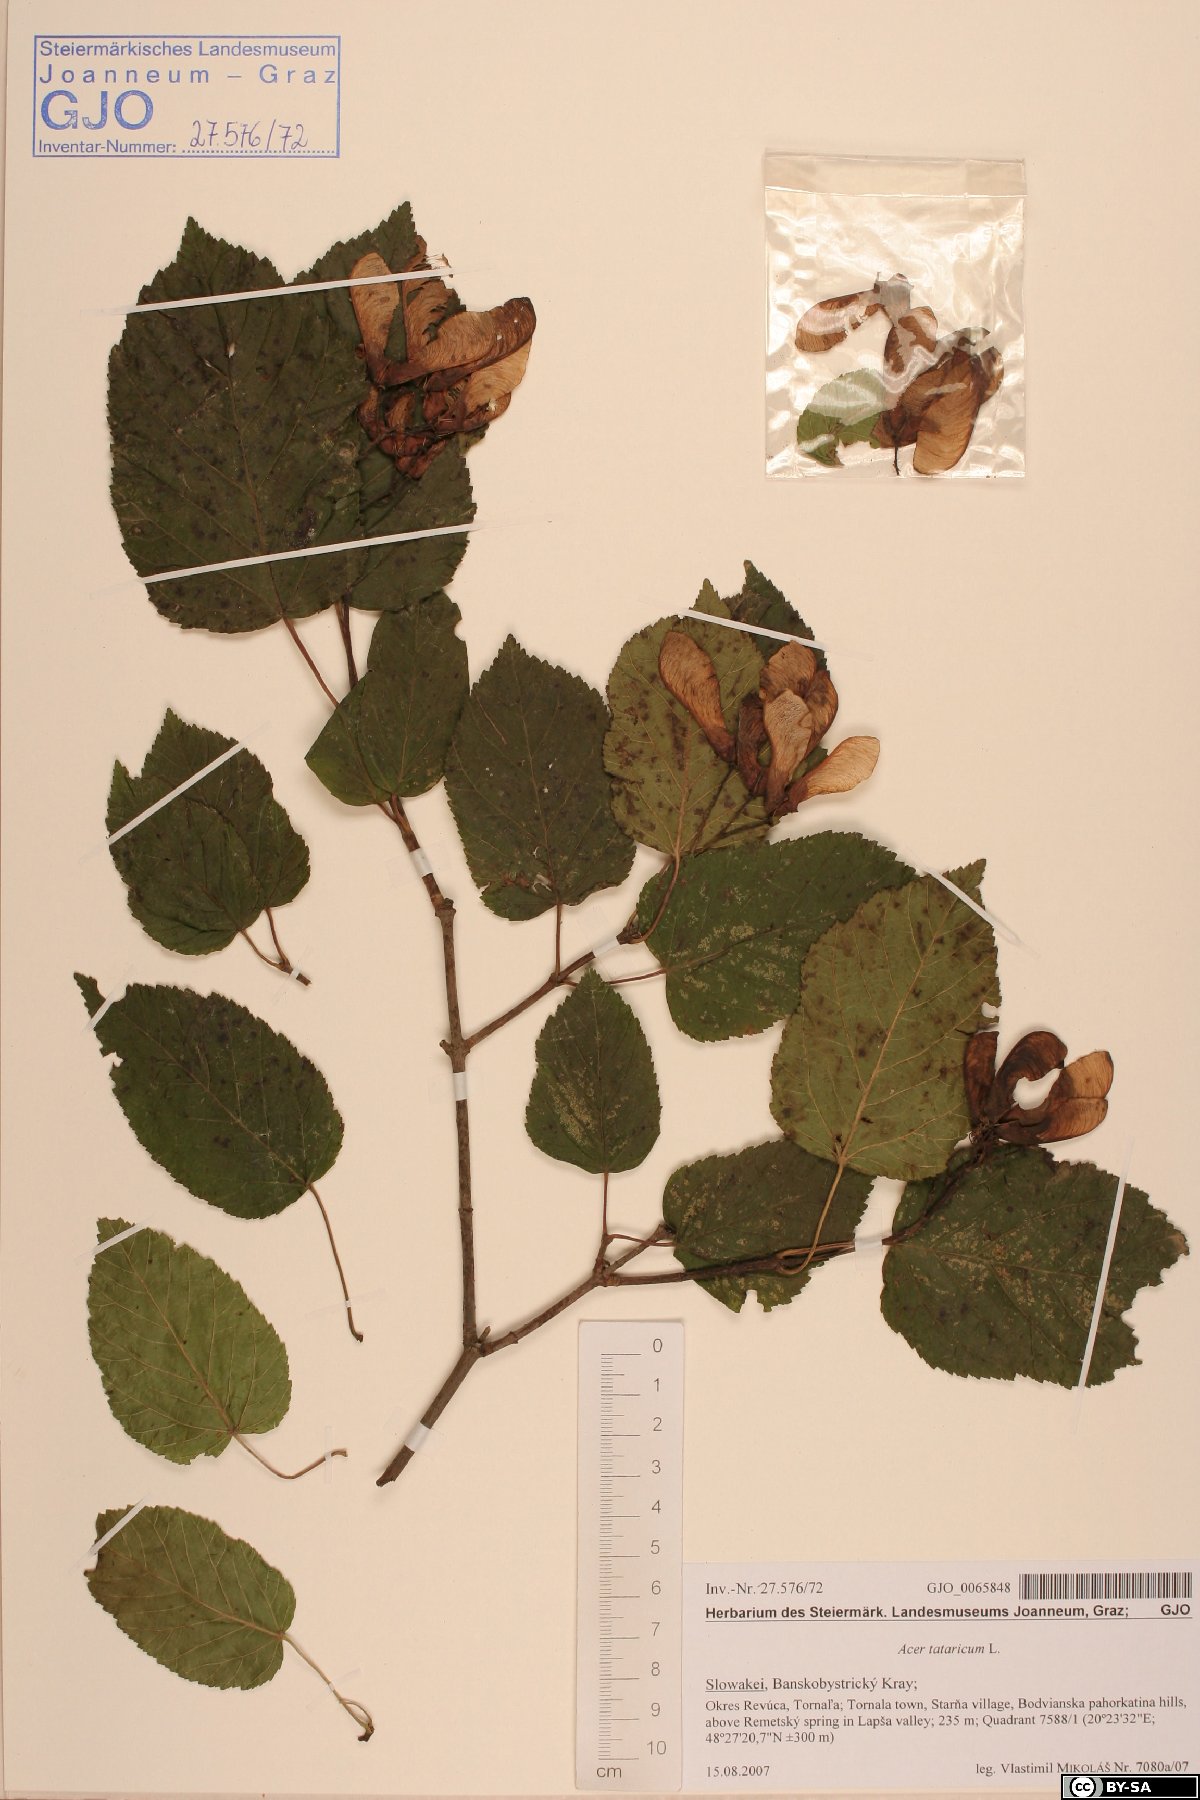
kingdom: Plantae
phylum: Tracheophyta
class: Magnoliopsida
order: Sapindales
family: Sapindaceae
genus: Acer
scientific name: Acer tataricum
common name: Tartar maple
